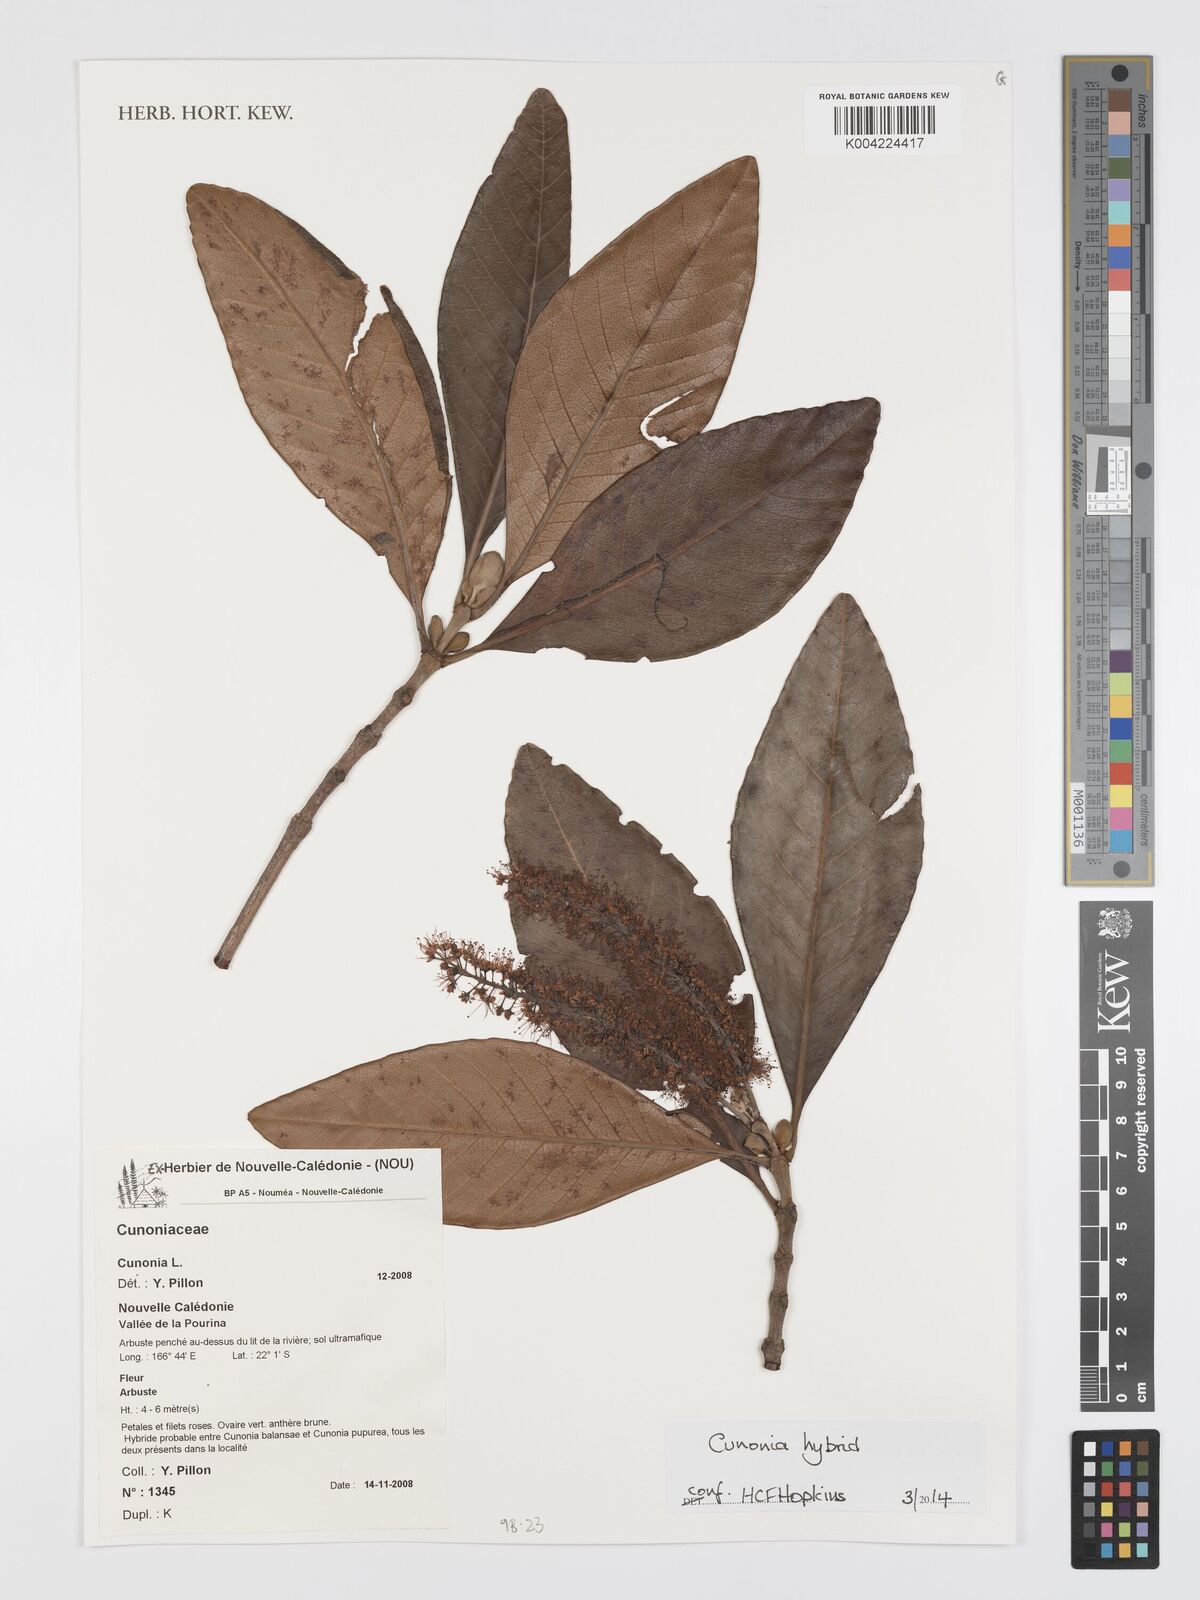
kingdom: Plantae
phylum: Tracheophyta
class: Magnoliopsida
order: Oxalidales
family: Cunoniaceae
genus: Cunonia
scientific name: Cunonia
